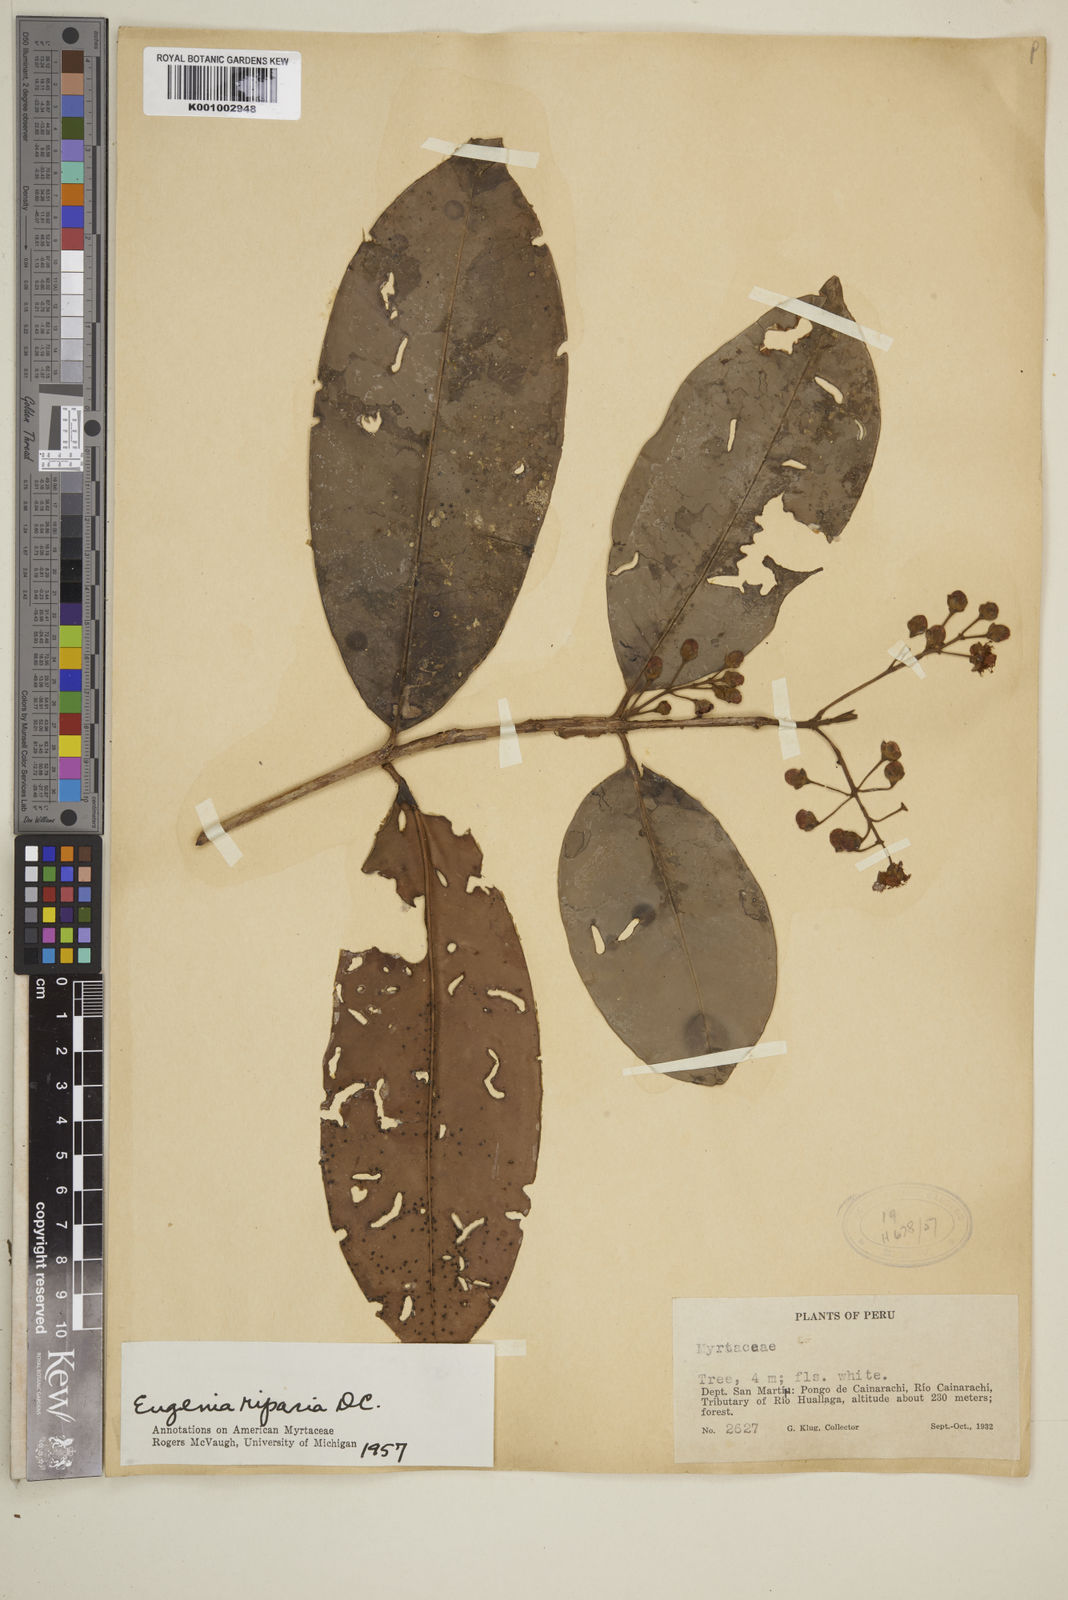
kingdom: Plantae
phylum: Tracheophyta
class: Magnoliopsida
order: Myrtales
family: Myrtaceae
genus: Eugenia
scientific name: Eugenia muricata
